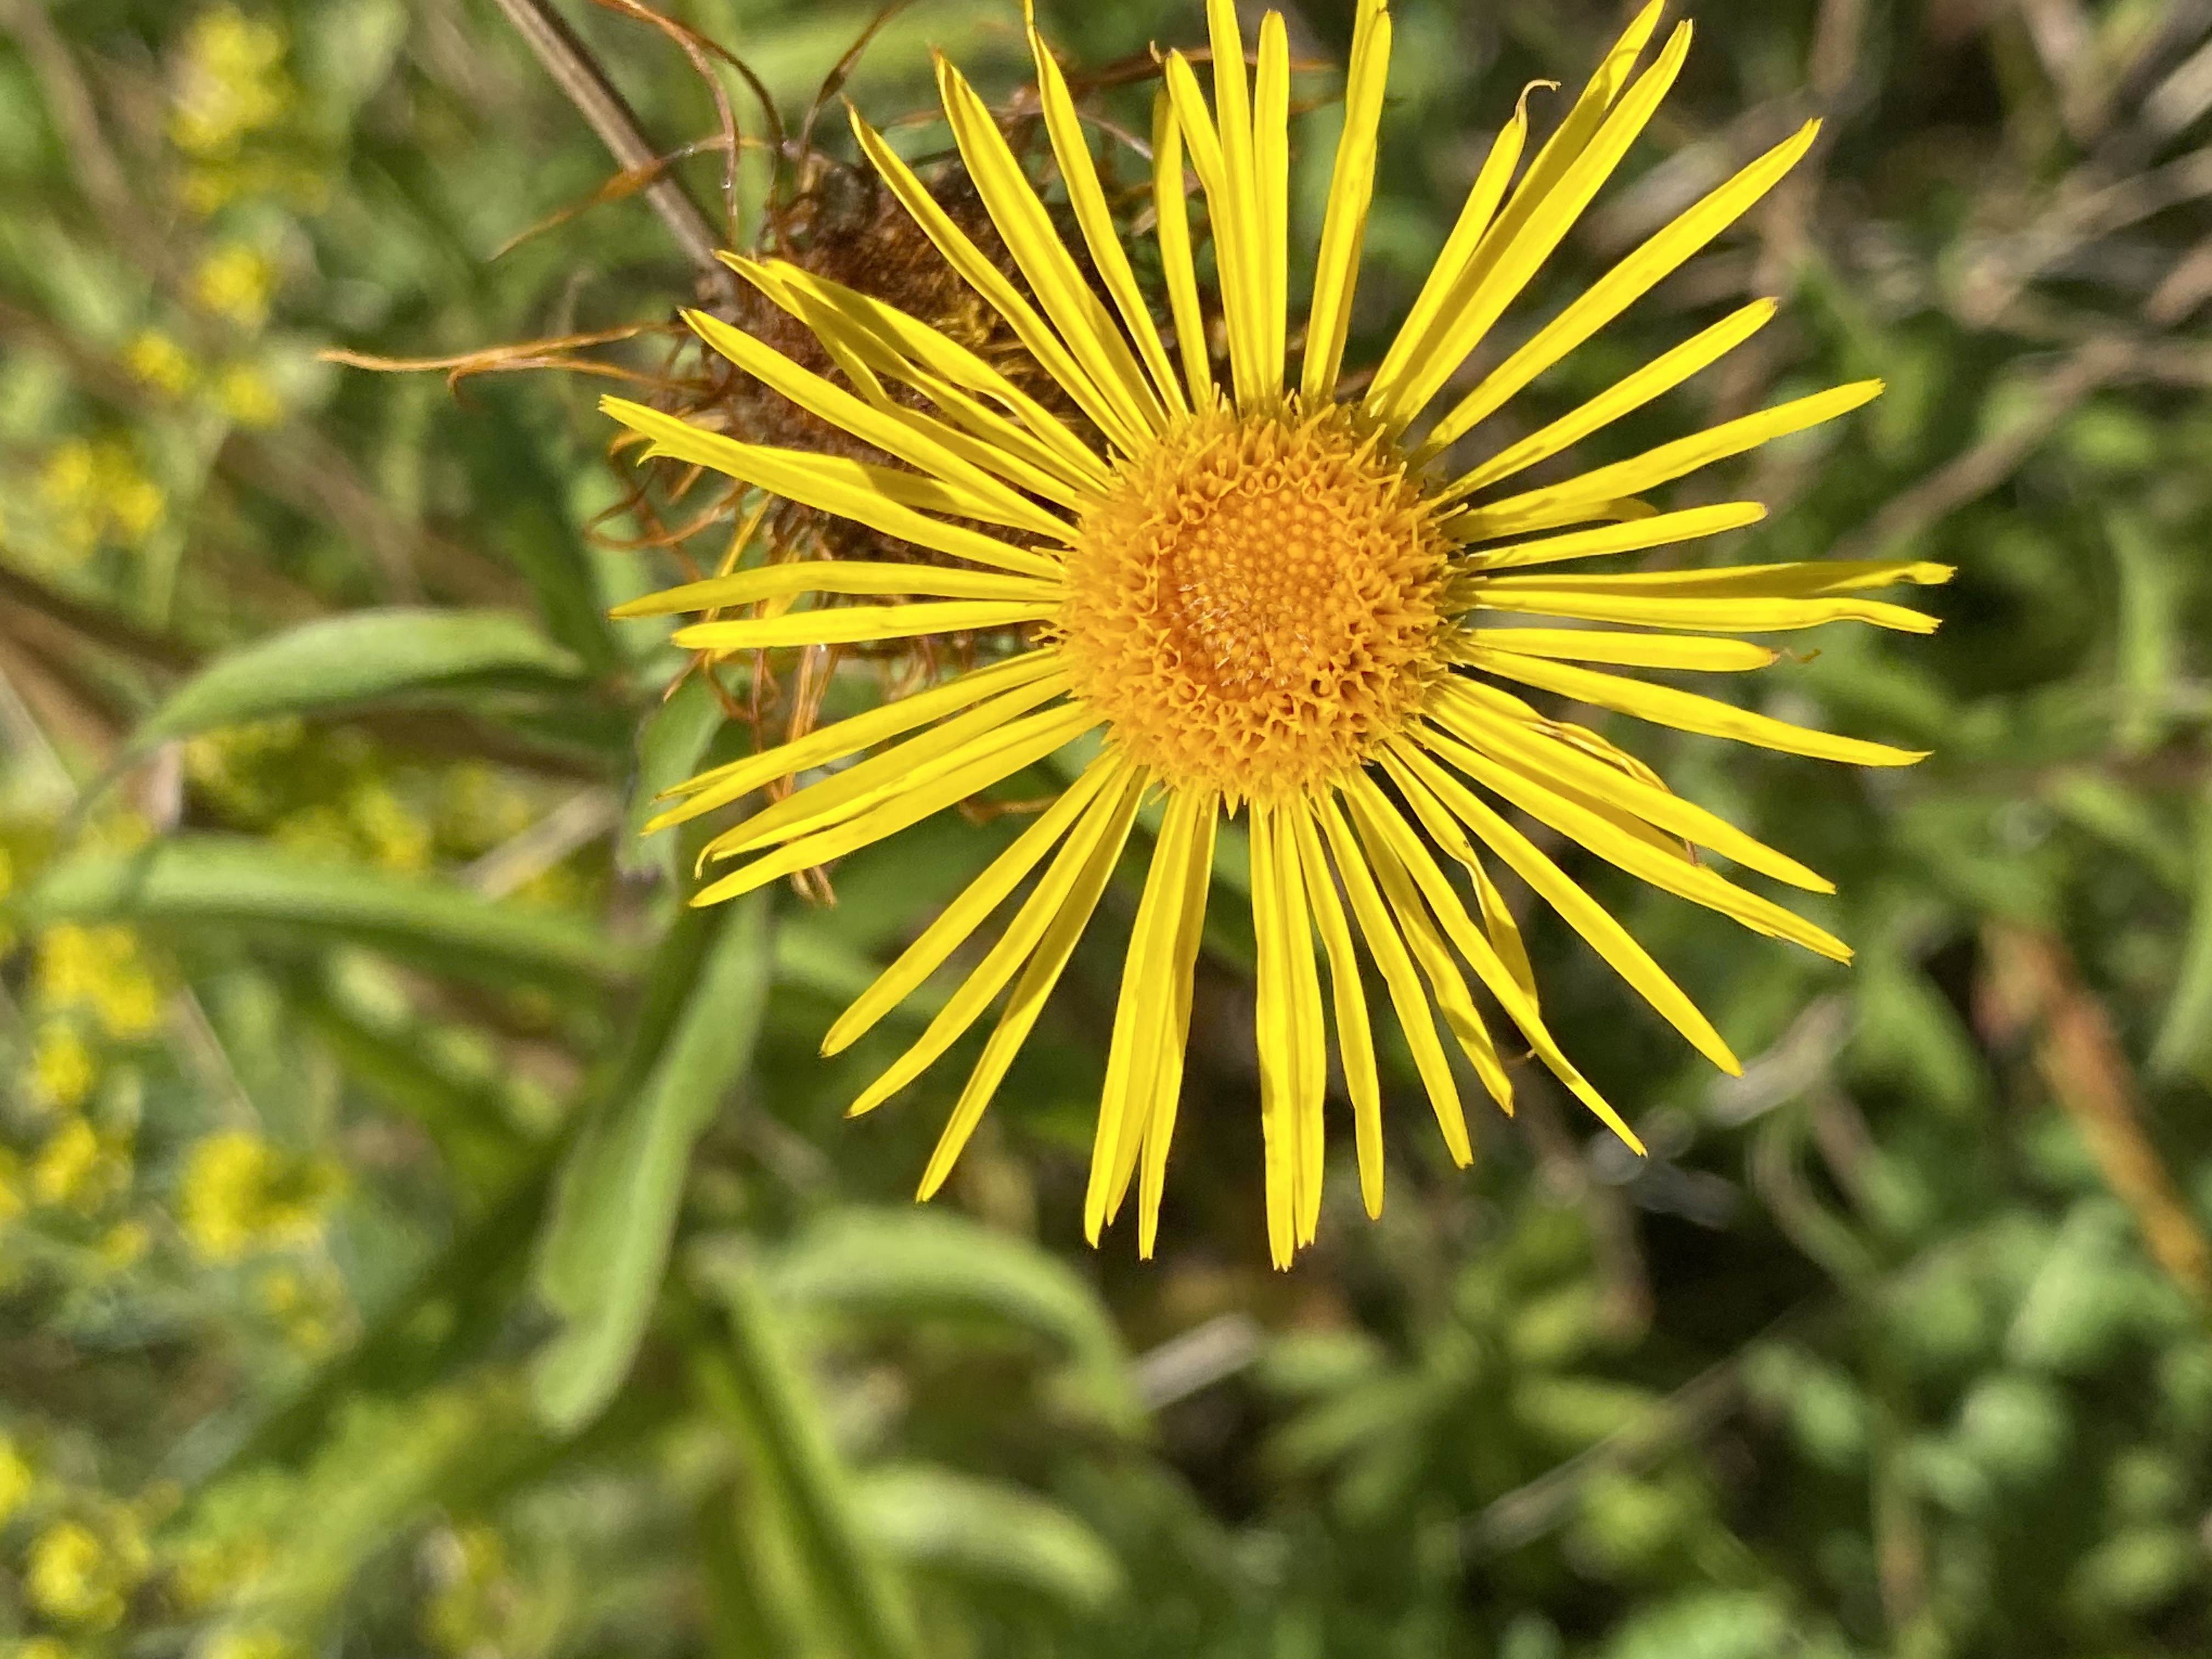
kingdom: Plantae
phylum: Tracheophyta
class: Magnoliopsida
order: Asterales
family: Asteraceae
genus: Pentanema
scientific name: Pentanema salicinum
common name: Pile-alant
